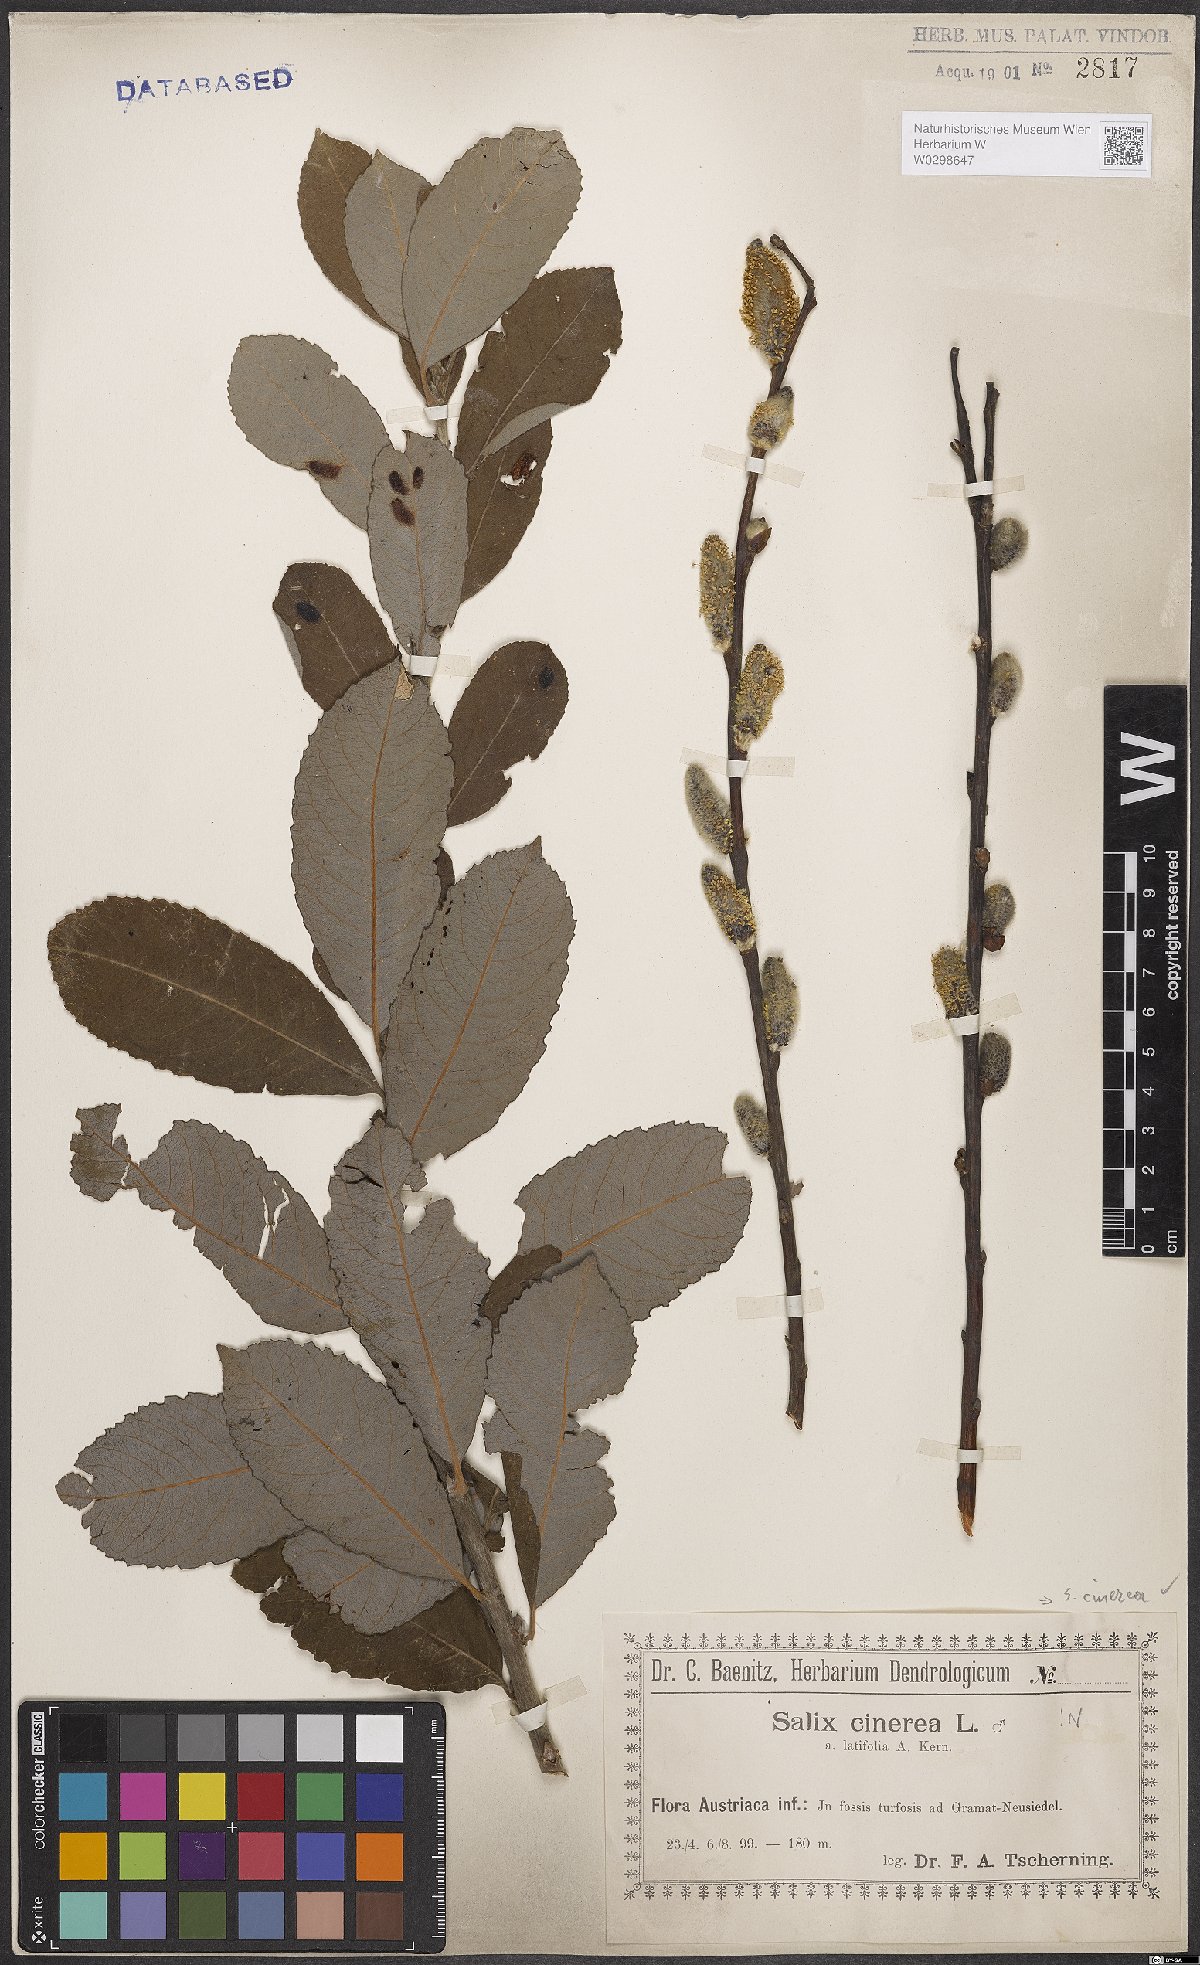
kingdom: Plantae
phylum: Tracheophyta
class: Magnoliopsida
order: Malpighiales
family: Salicaceae
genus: Salix
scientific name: Salix cinerea
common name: Common sallow
